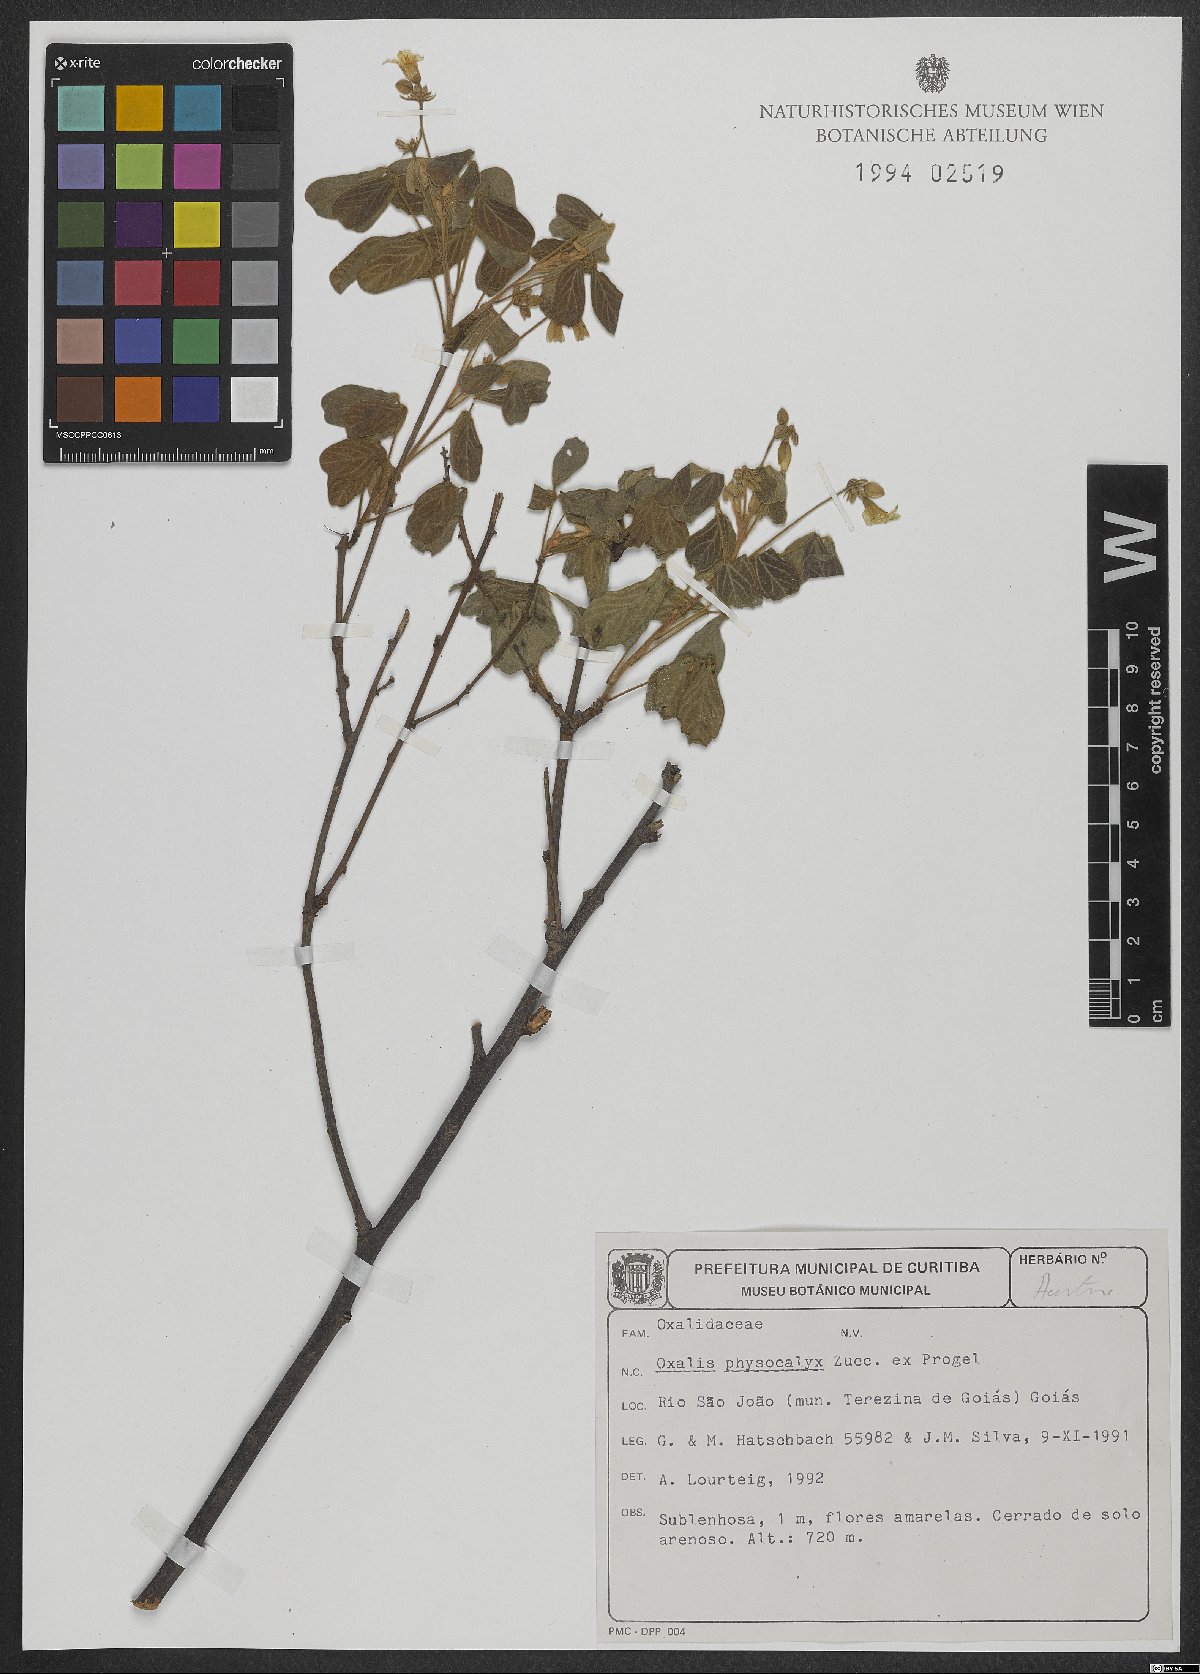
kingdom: Plantae
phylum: Tracheophyta
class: Magnoliopsida
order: Oxalidales
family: Oxalidaceae
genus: Oxalis
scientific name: Oxalis physocalyx
